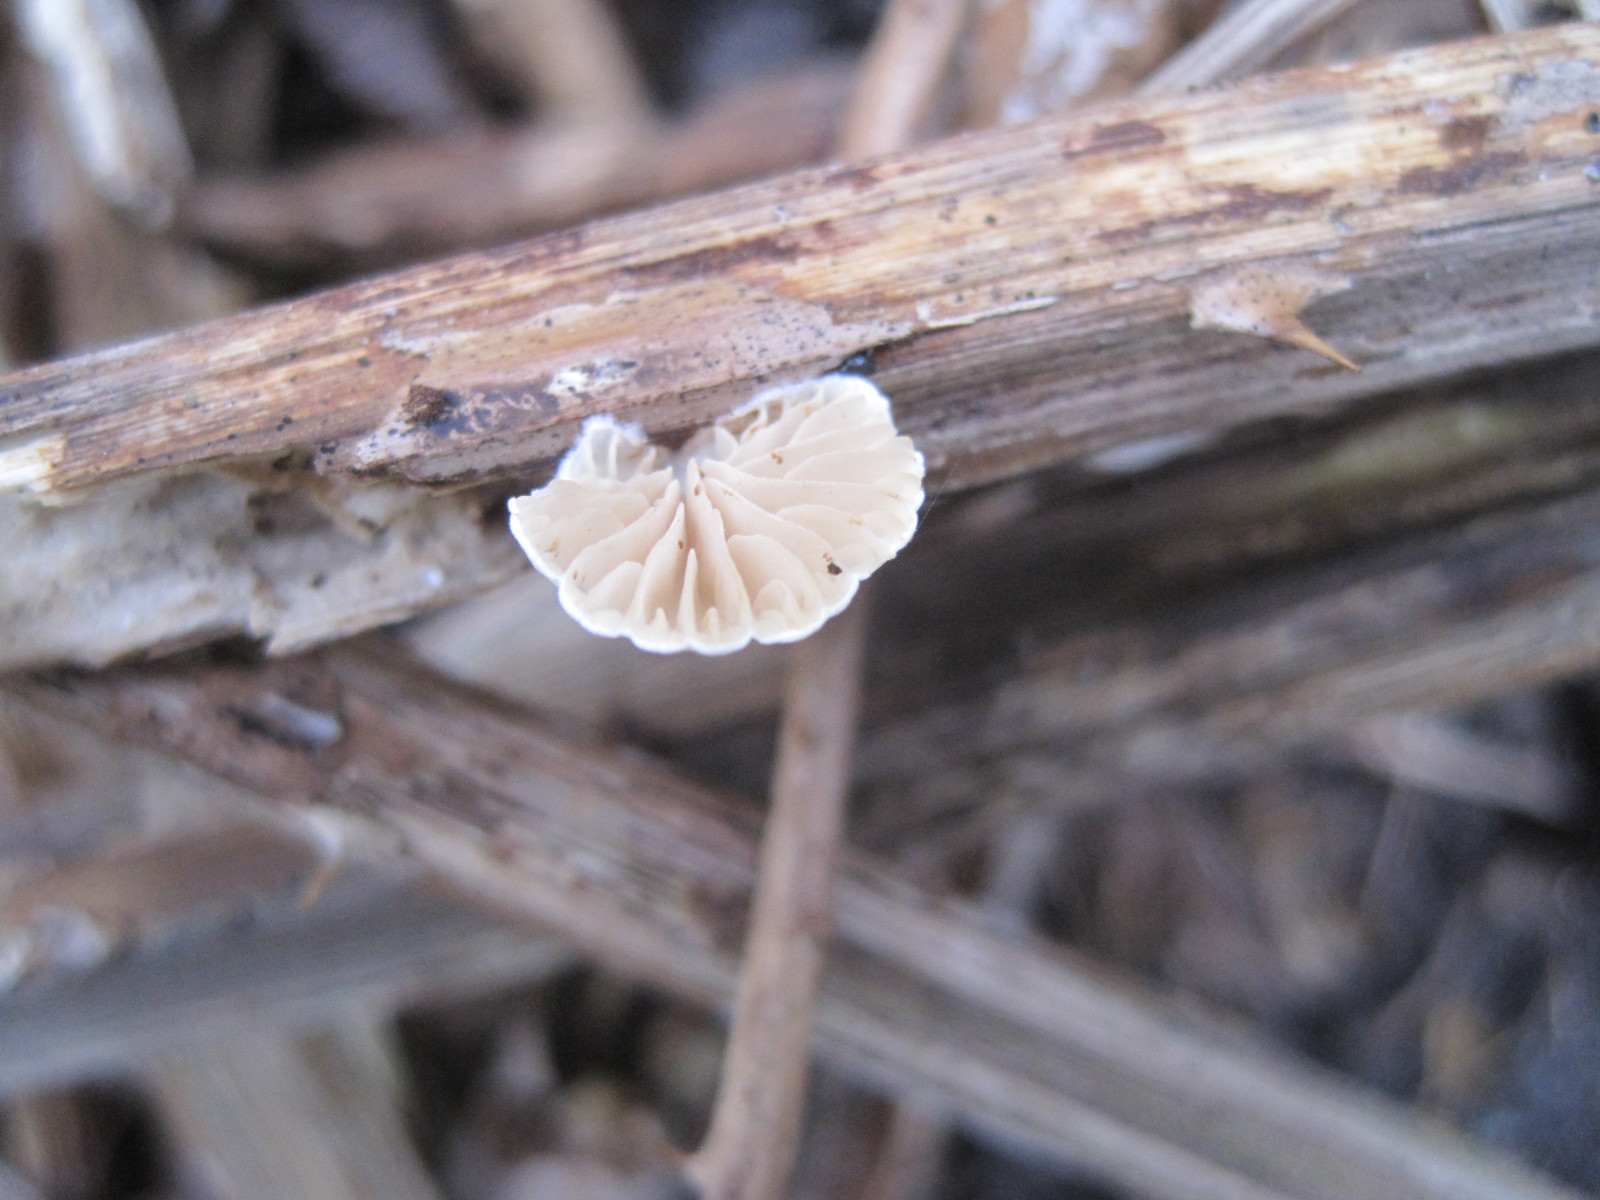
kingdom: Fungi
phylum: Basidiomycota
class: Agaricomycetes
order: Agaricales
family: Crepidotaceae
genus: Crepidotus
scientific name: Crepidotus cesatii
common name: almindelig muslingesvamp
